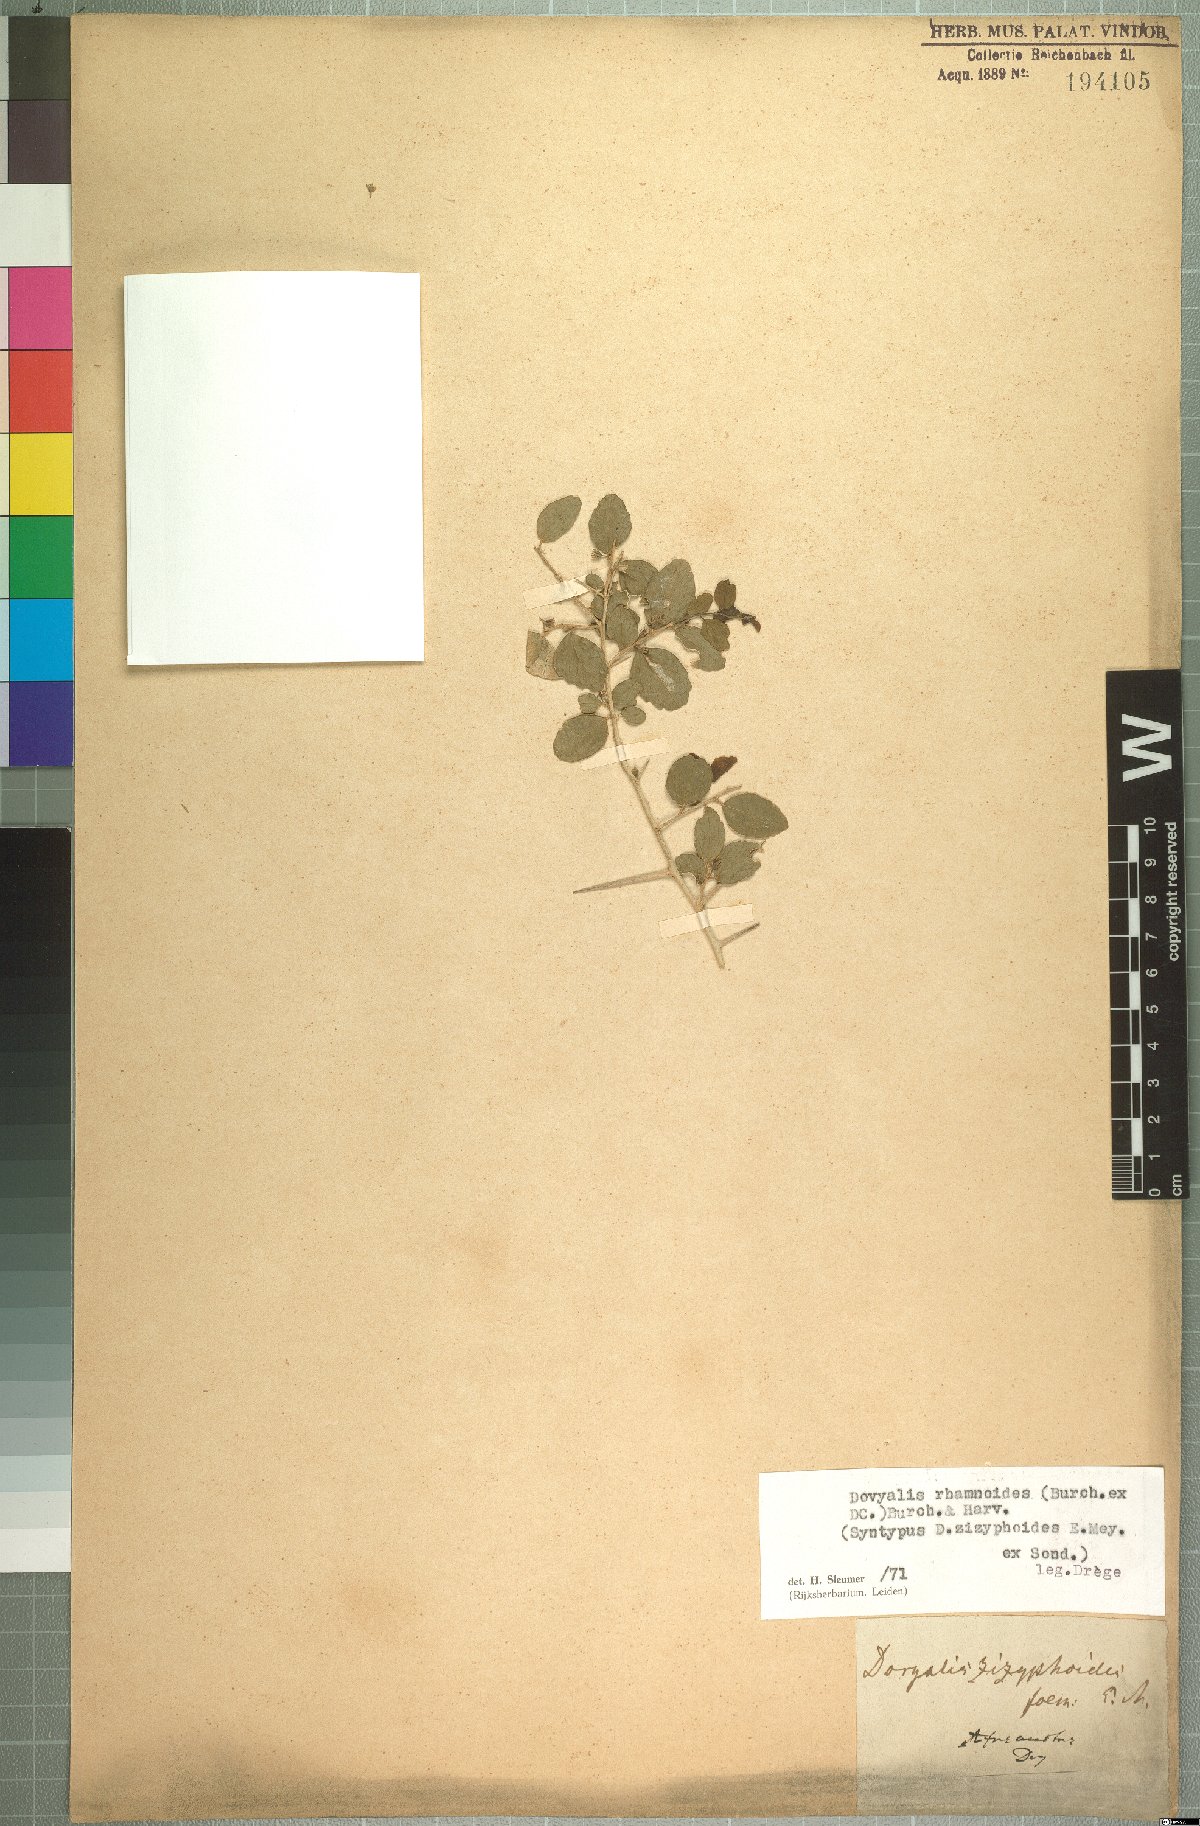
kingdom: Plantae
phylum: Tracheophyta
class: Magnoliopsida
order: Malpighiales
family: Salicaceae
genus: Dovyalis
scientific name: Dovyalis rhamnoides
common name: Sourberry
